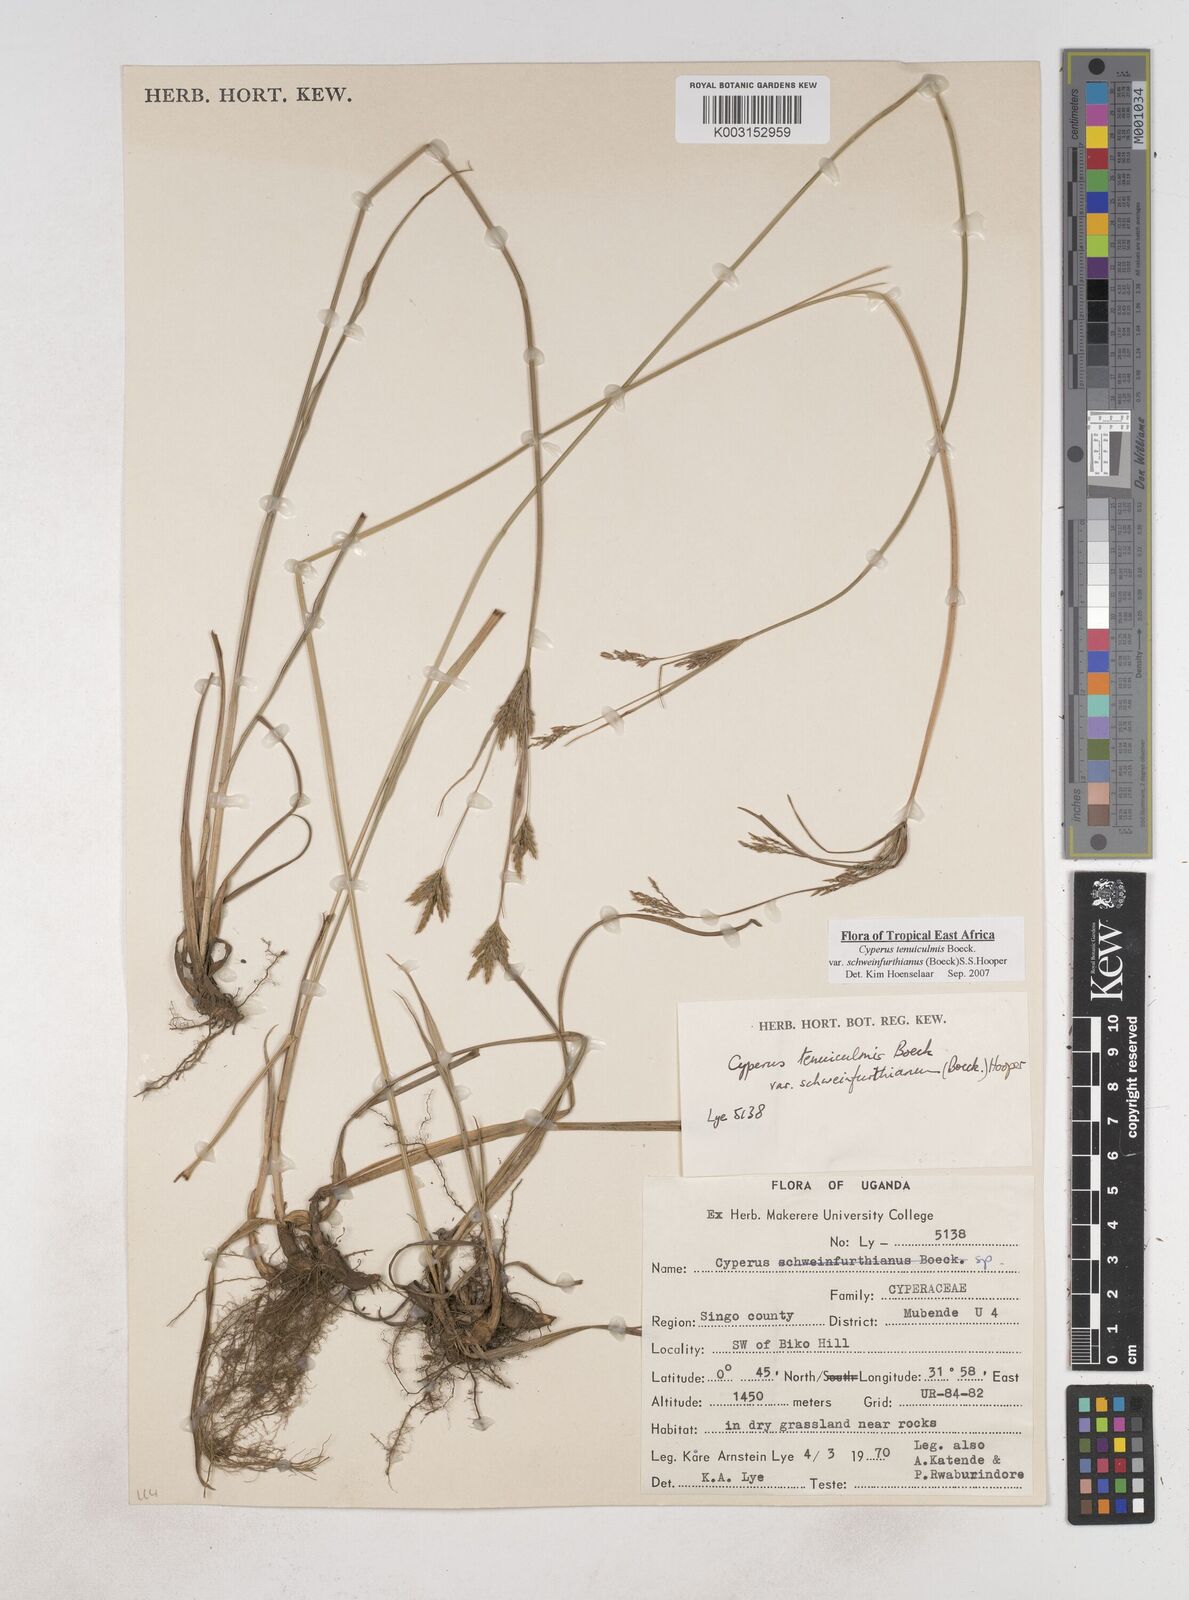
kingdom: Plantae
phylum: Tracheophyta
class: Liliopsida
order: Poales
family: Cyperaceae
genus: Cyperus
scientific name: Cyperus tenuiculmis
